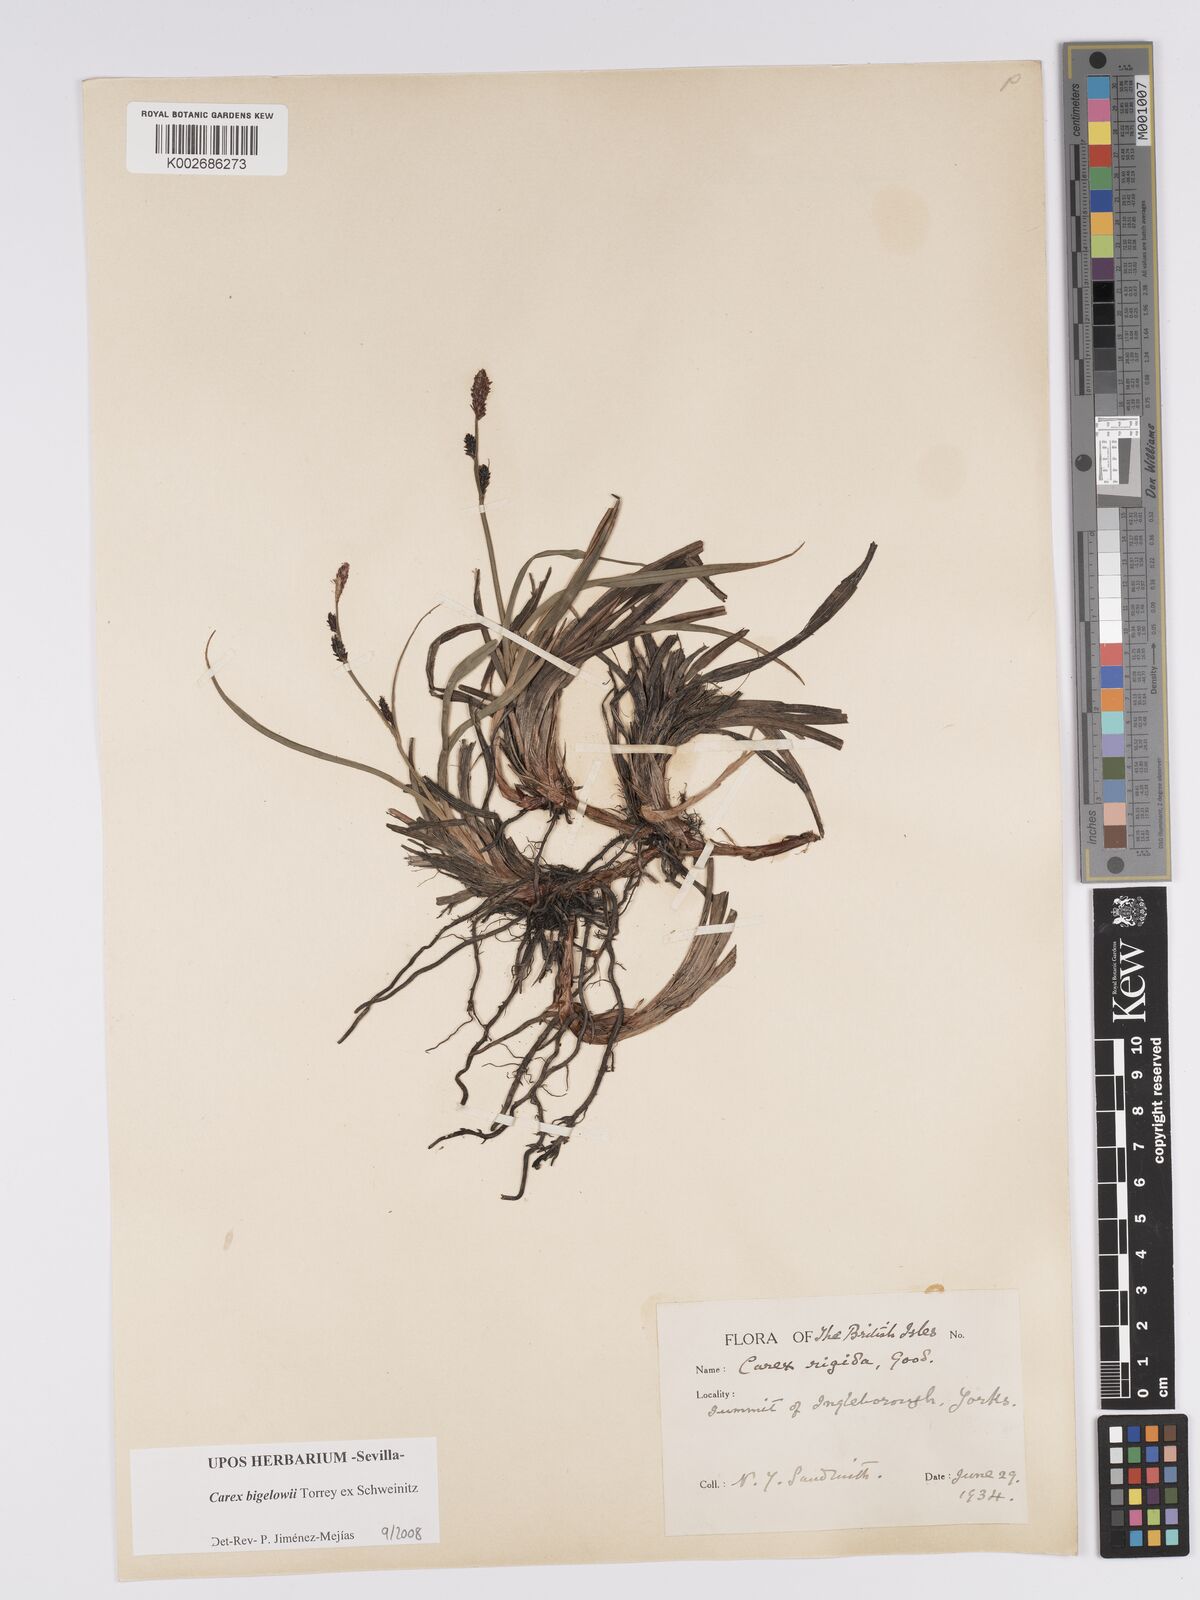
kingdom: Plantae
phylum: Tracheophyta
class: Liliopsida
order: Poales
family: Cyperaceae
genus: Carex
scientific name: Carex bigelowii
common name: Stiff sedge
